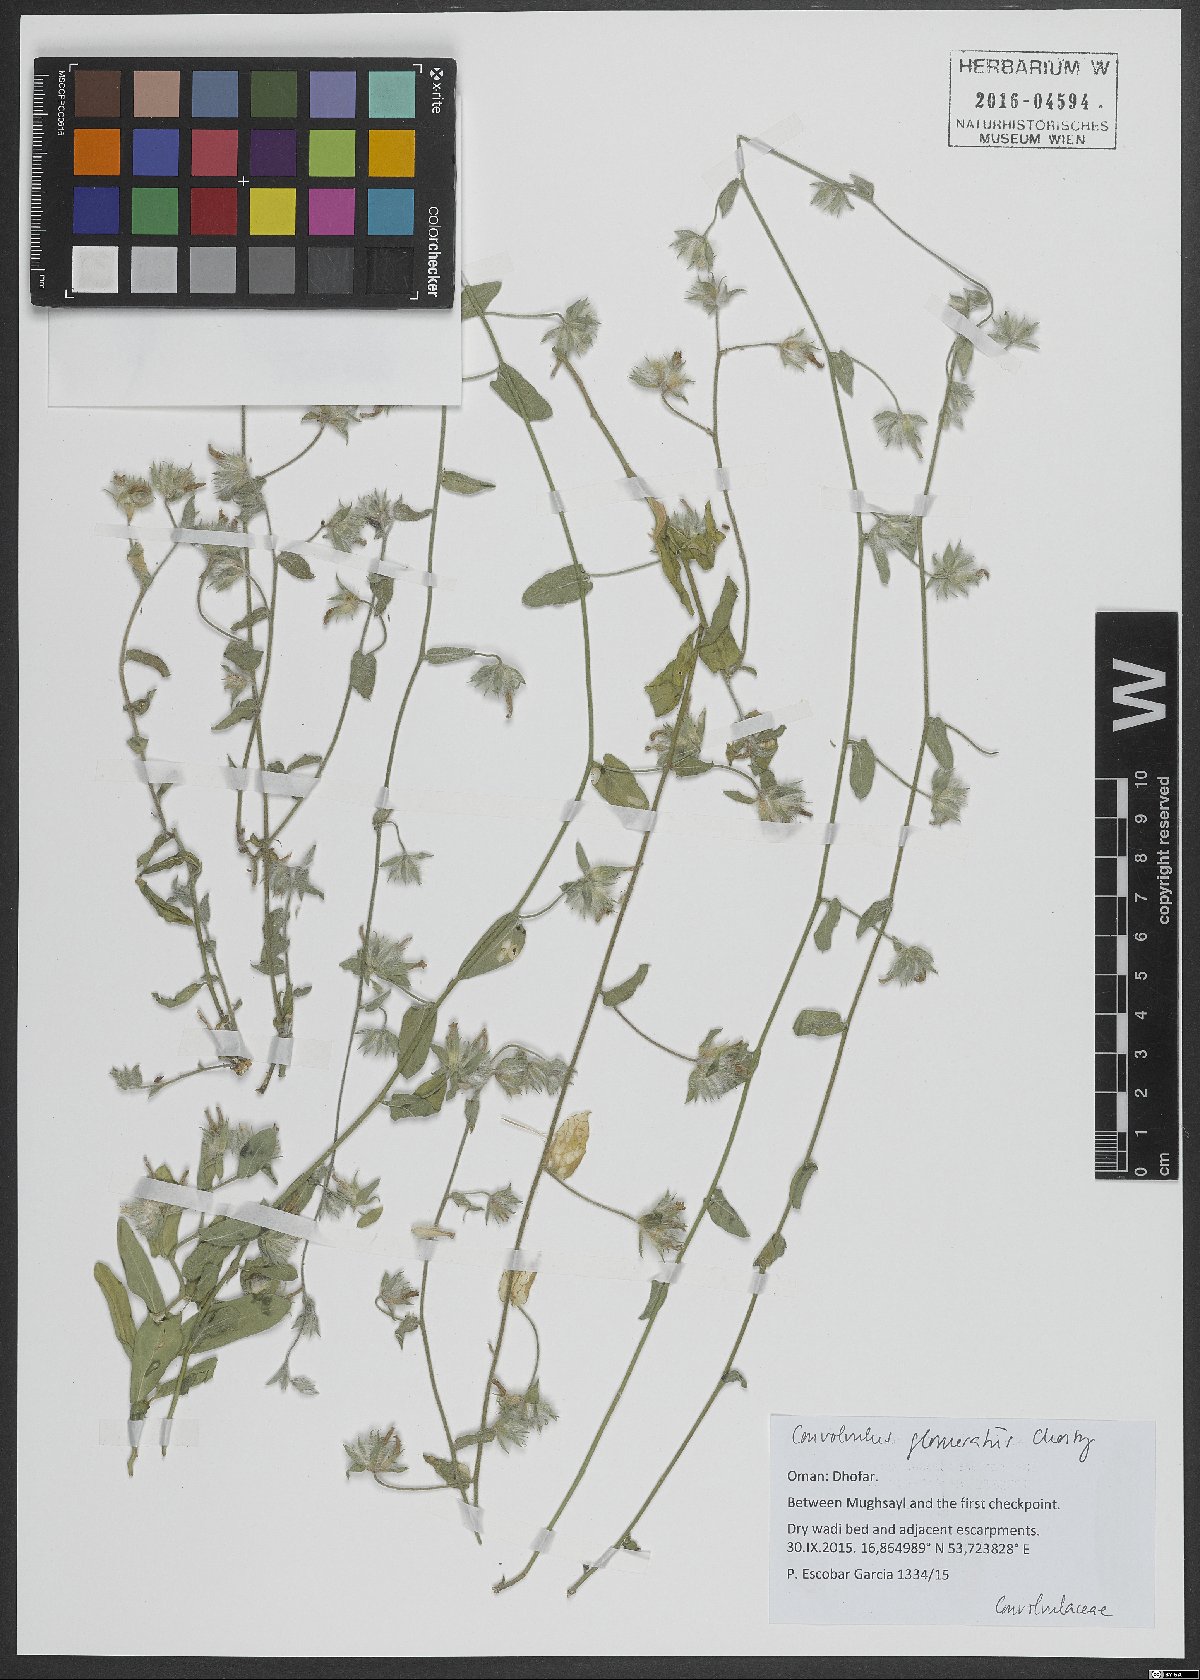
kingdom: Plantae
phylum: Tracheophyta
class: Magnoliopsida
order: Solanales
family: Convolvulaceae
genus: Convolvulus
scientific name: Convolvulus glomeratus
